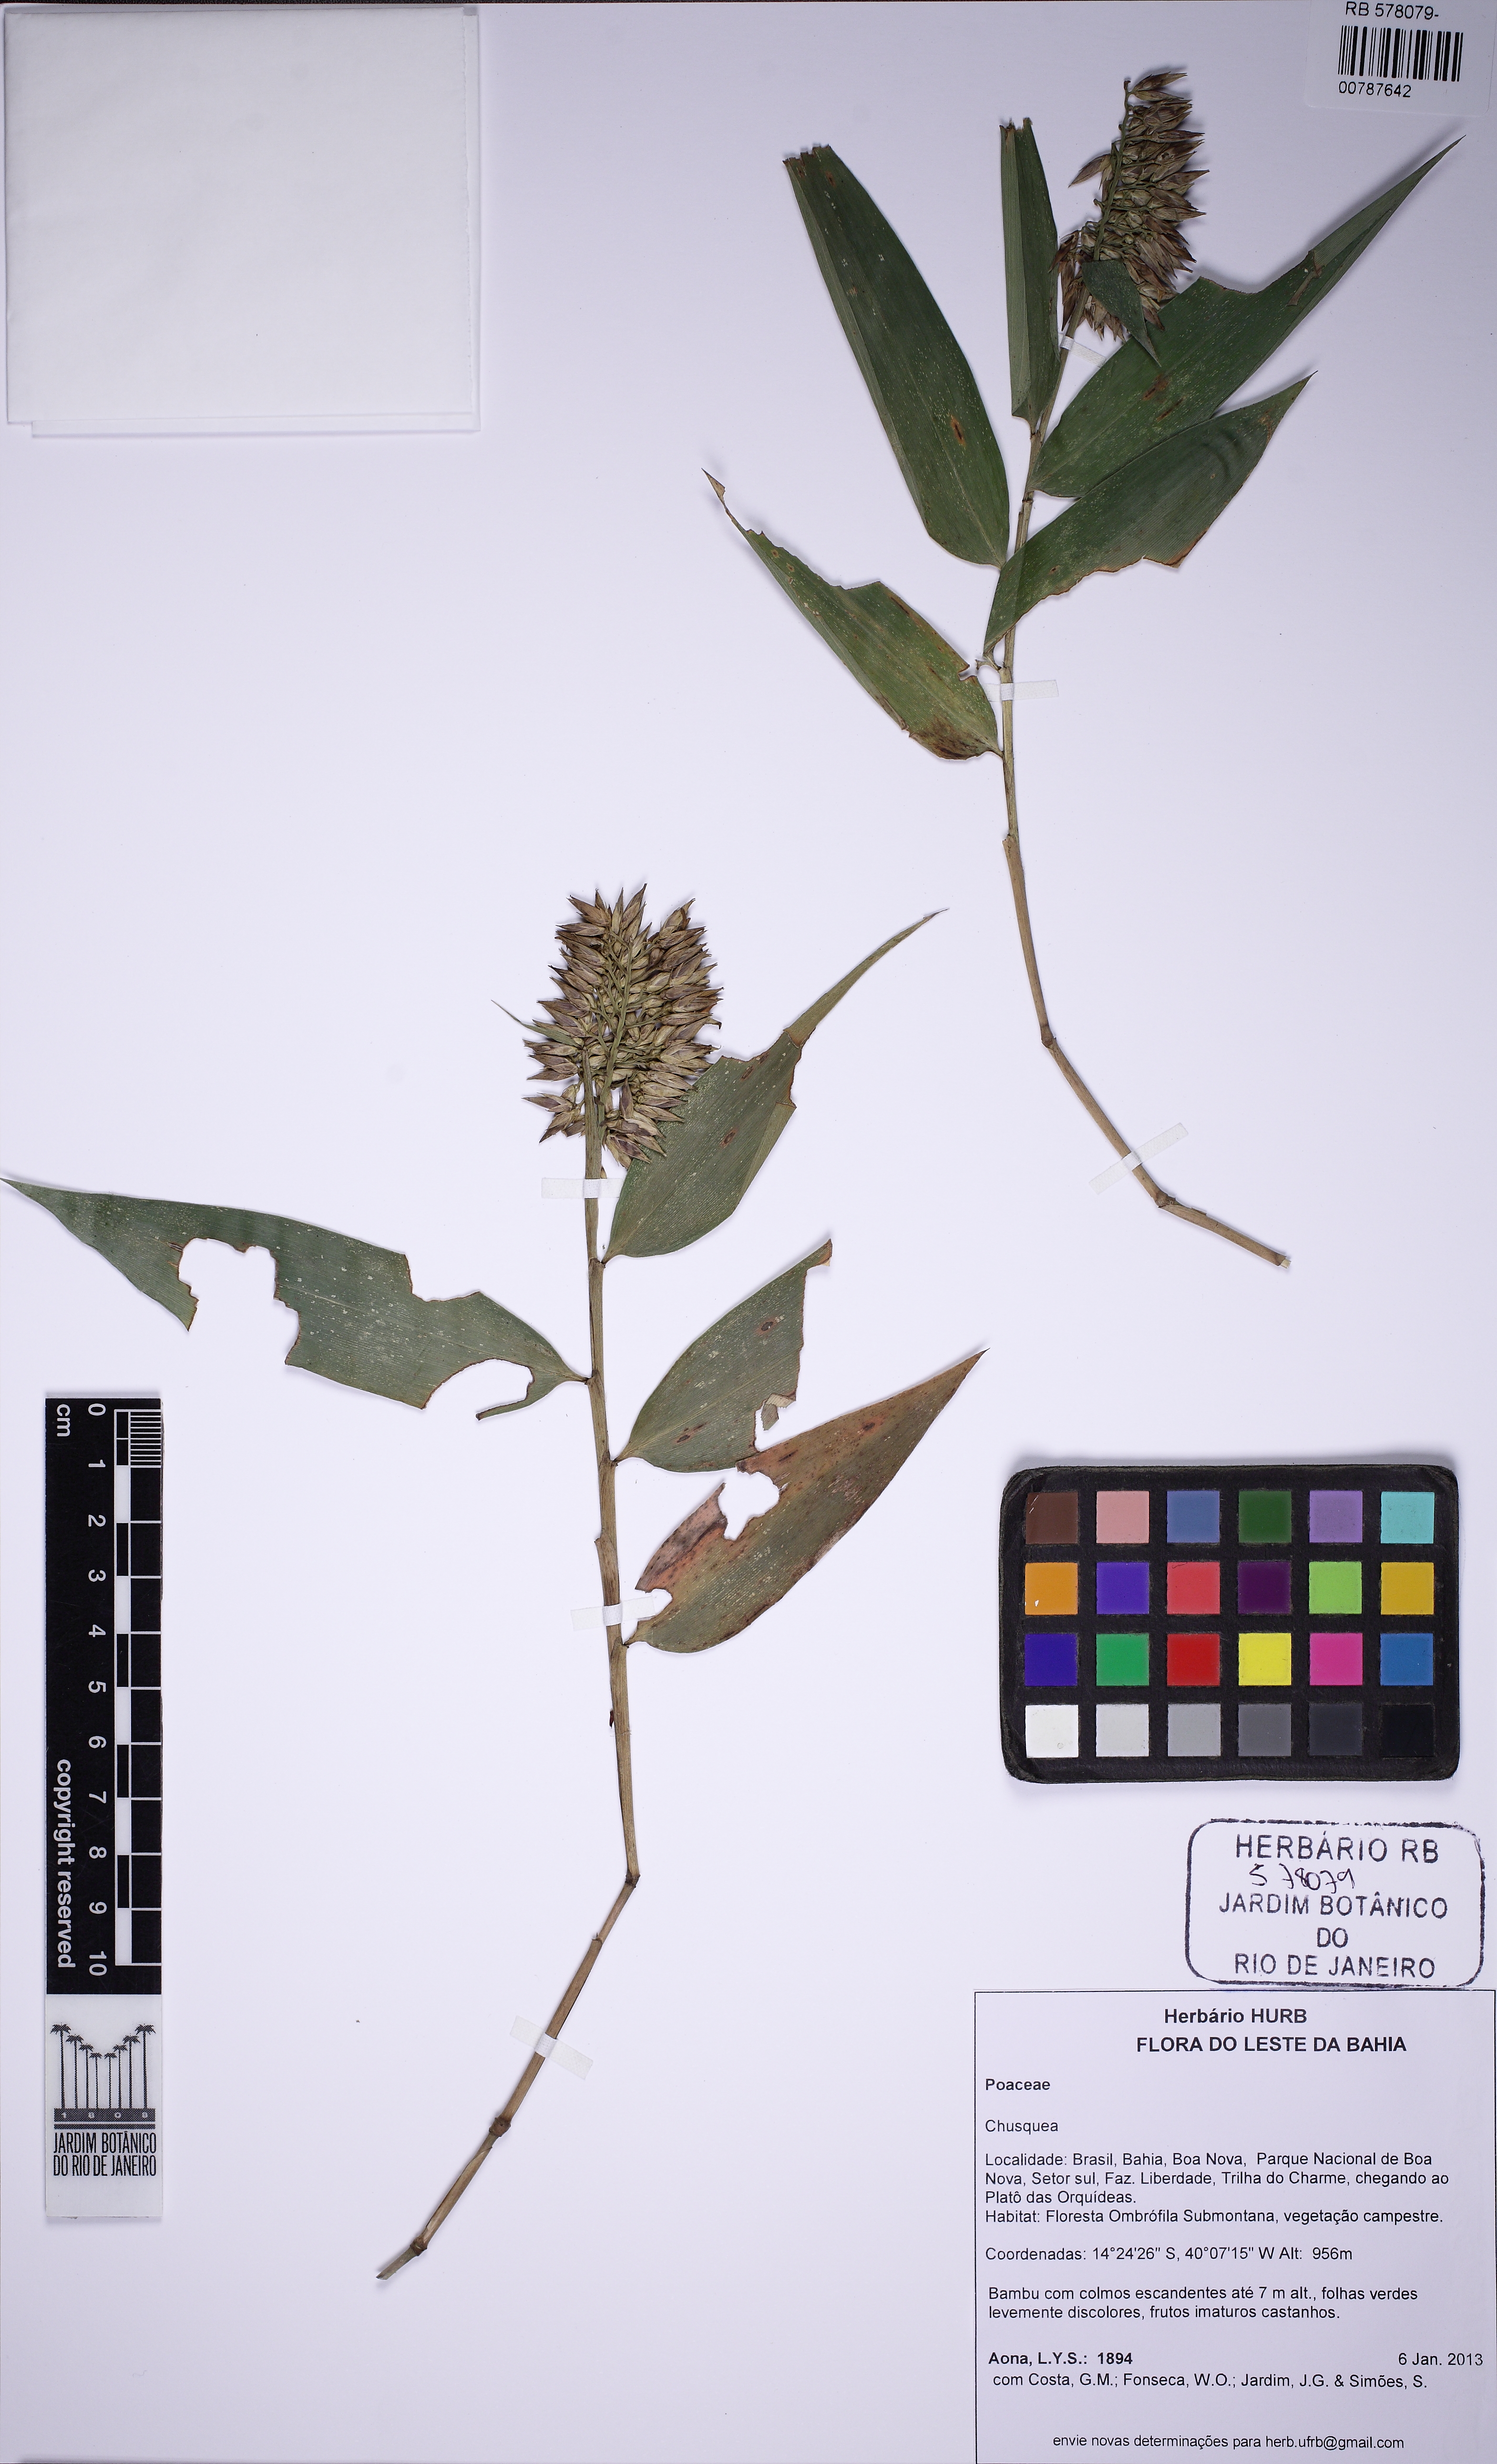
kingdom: Plantae
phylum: Tracheophyta
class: Liliopsida
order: Poales
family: Poaceae
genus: Chusquea
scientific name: Chusquea oxylepis
